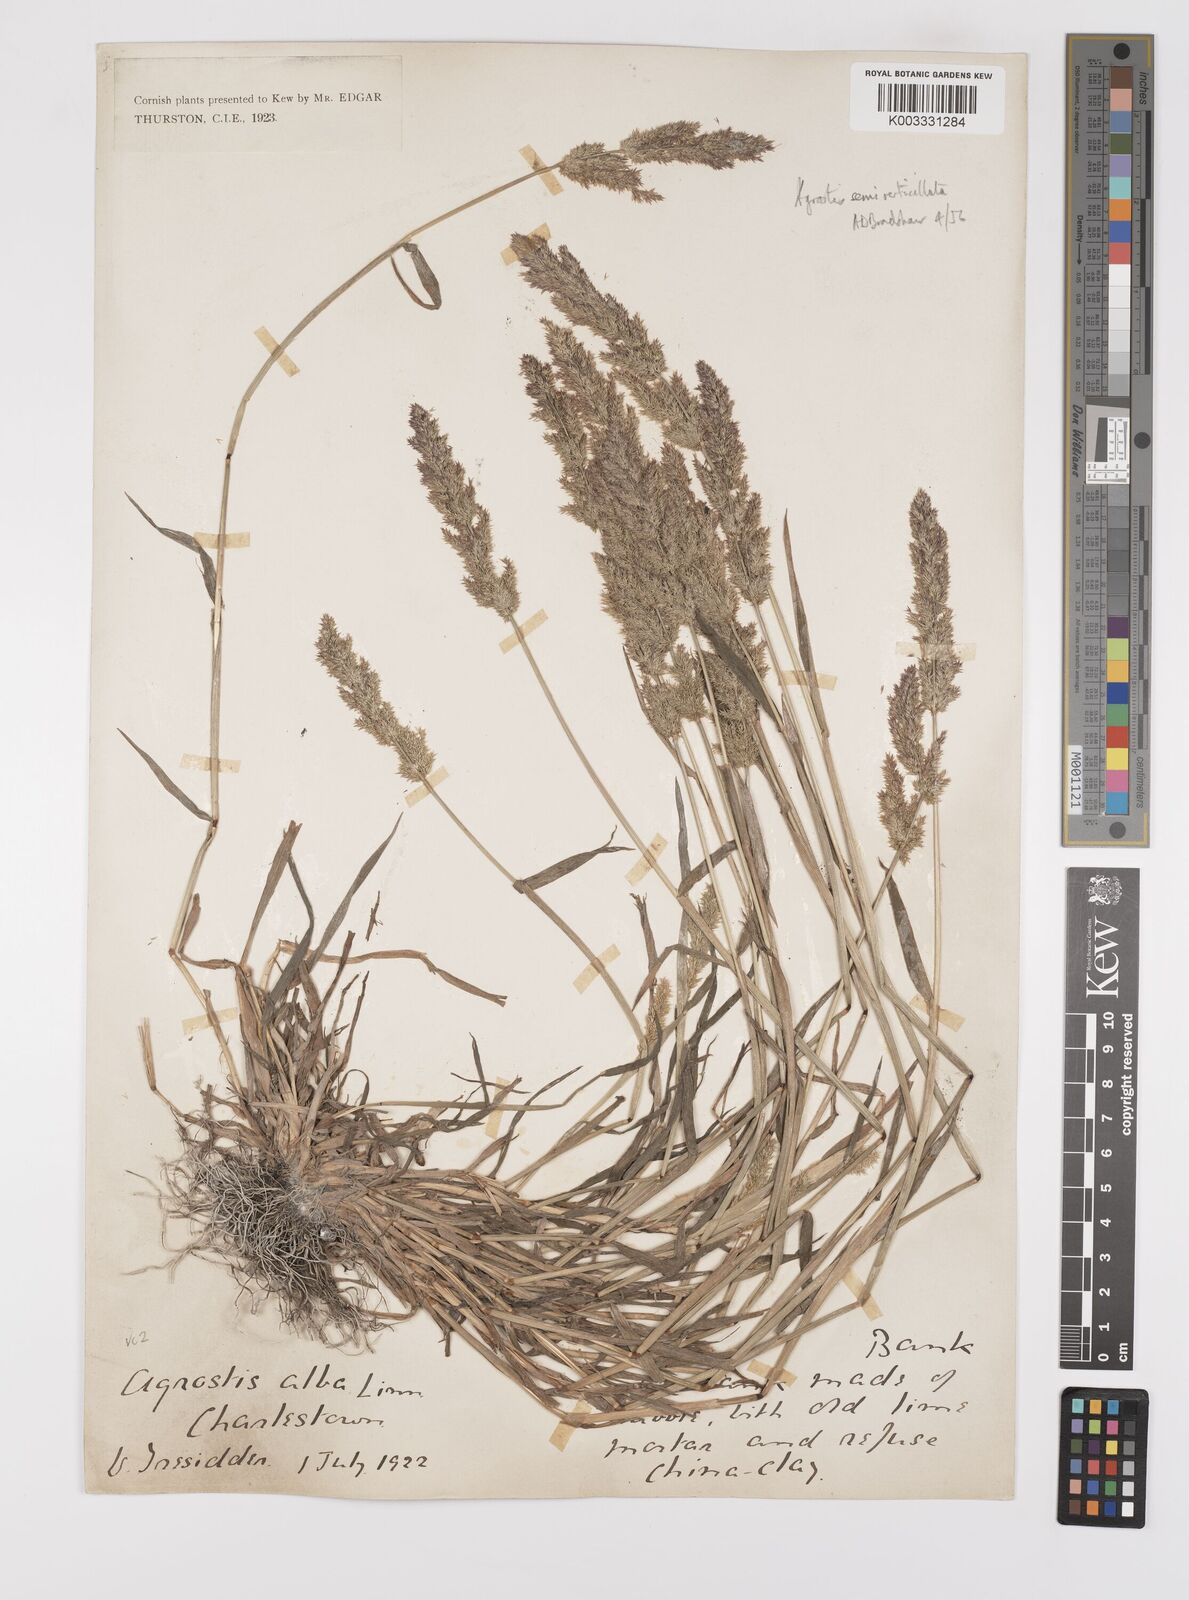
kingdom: Plantae
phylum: Tracheophyta
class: Liliopsida
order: Poales
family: Poaceae
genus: Polypogon
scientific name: Polypogon viridis
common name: Water bent
